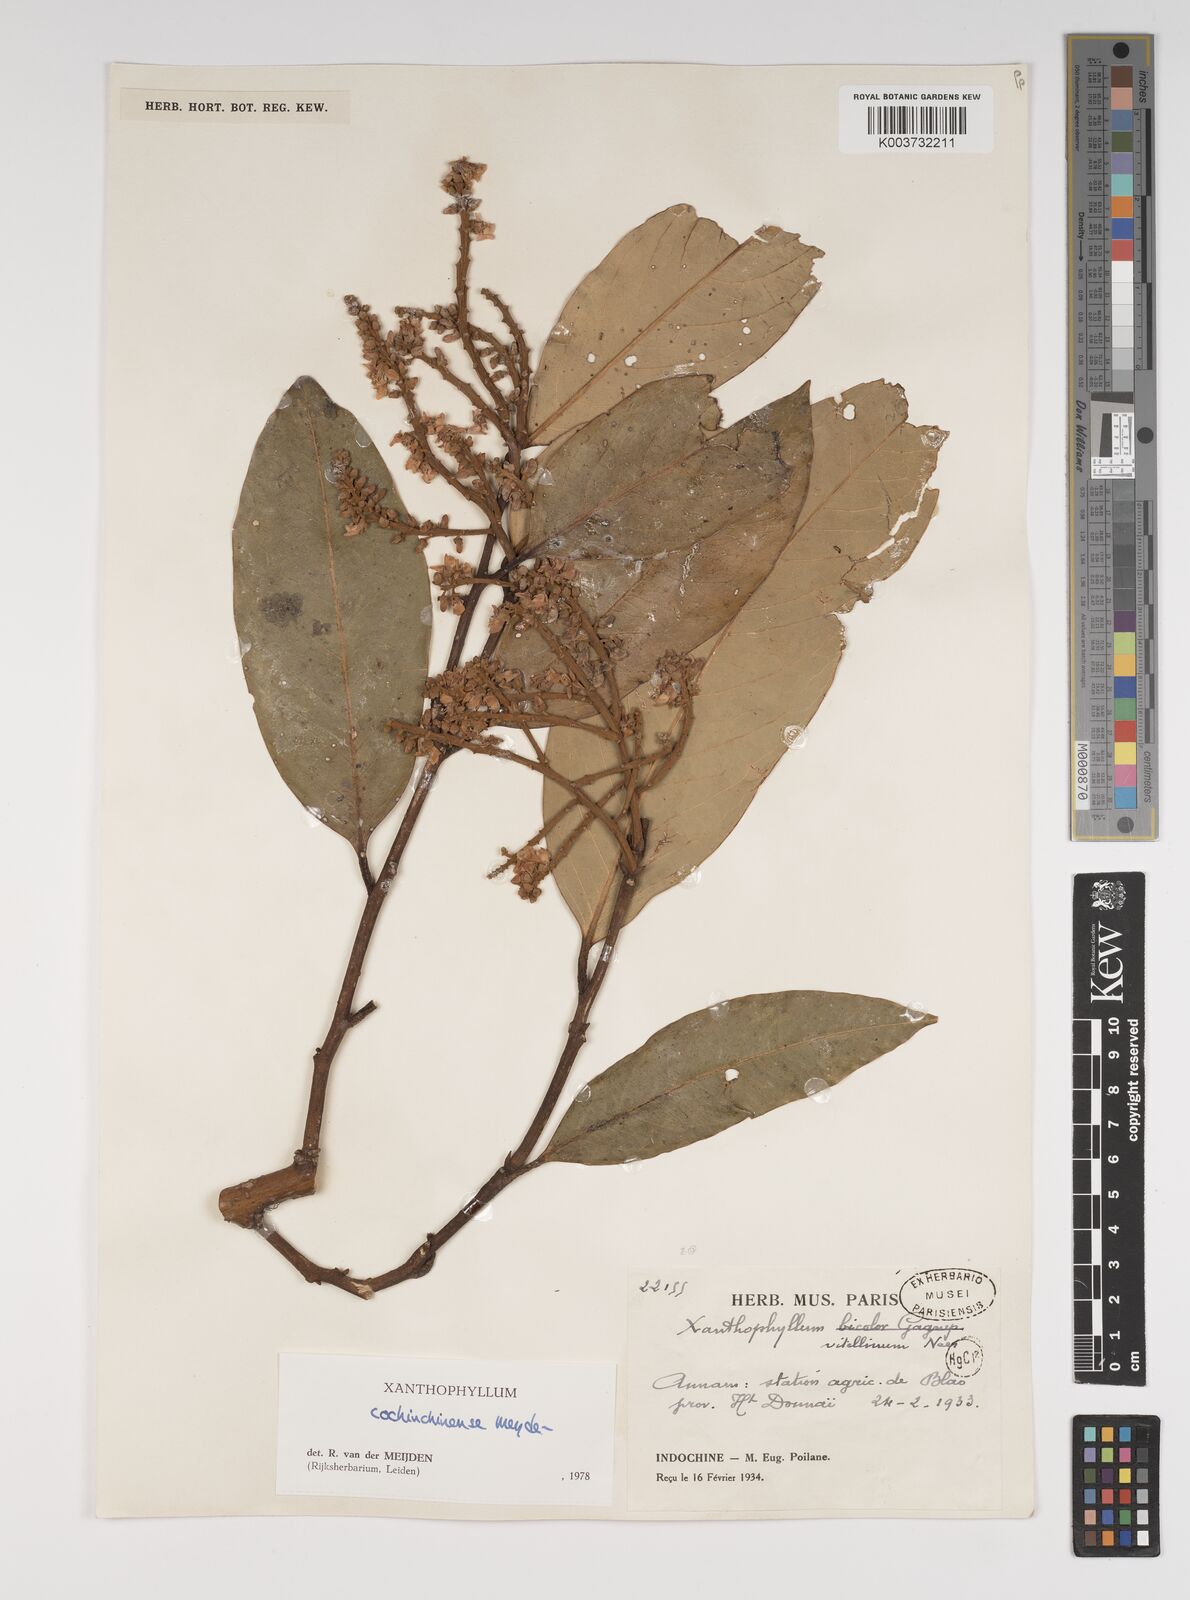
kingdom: Plantae
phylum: Tracheophyta
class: Magnoliopsida
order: Fabales
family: Polygalaceae
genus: Xanthophyllum
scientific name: Xanthophyllum cochinchinense
